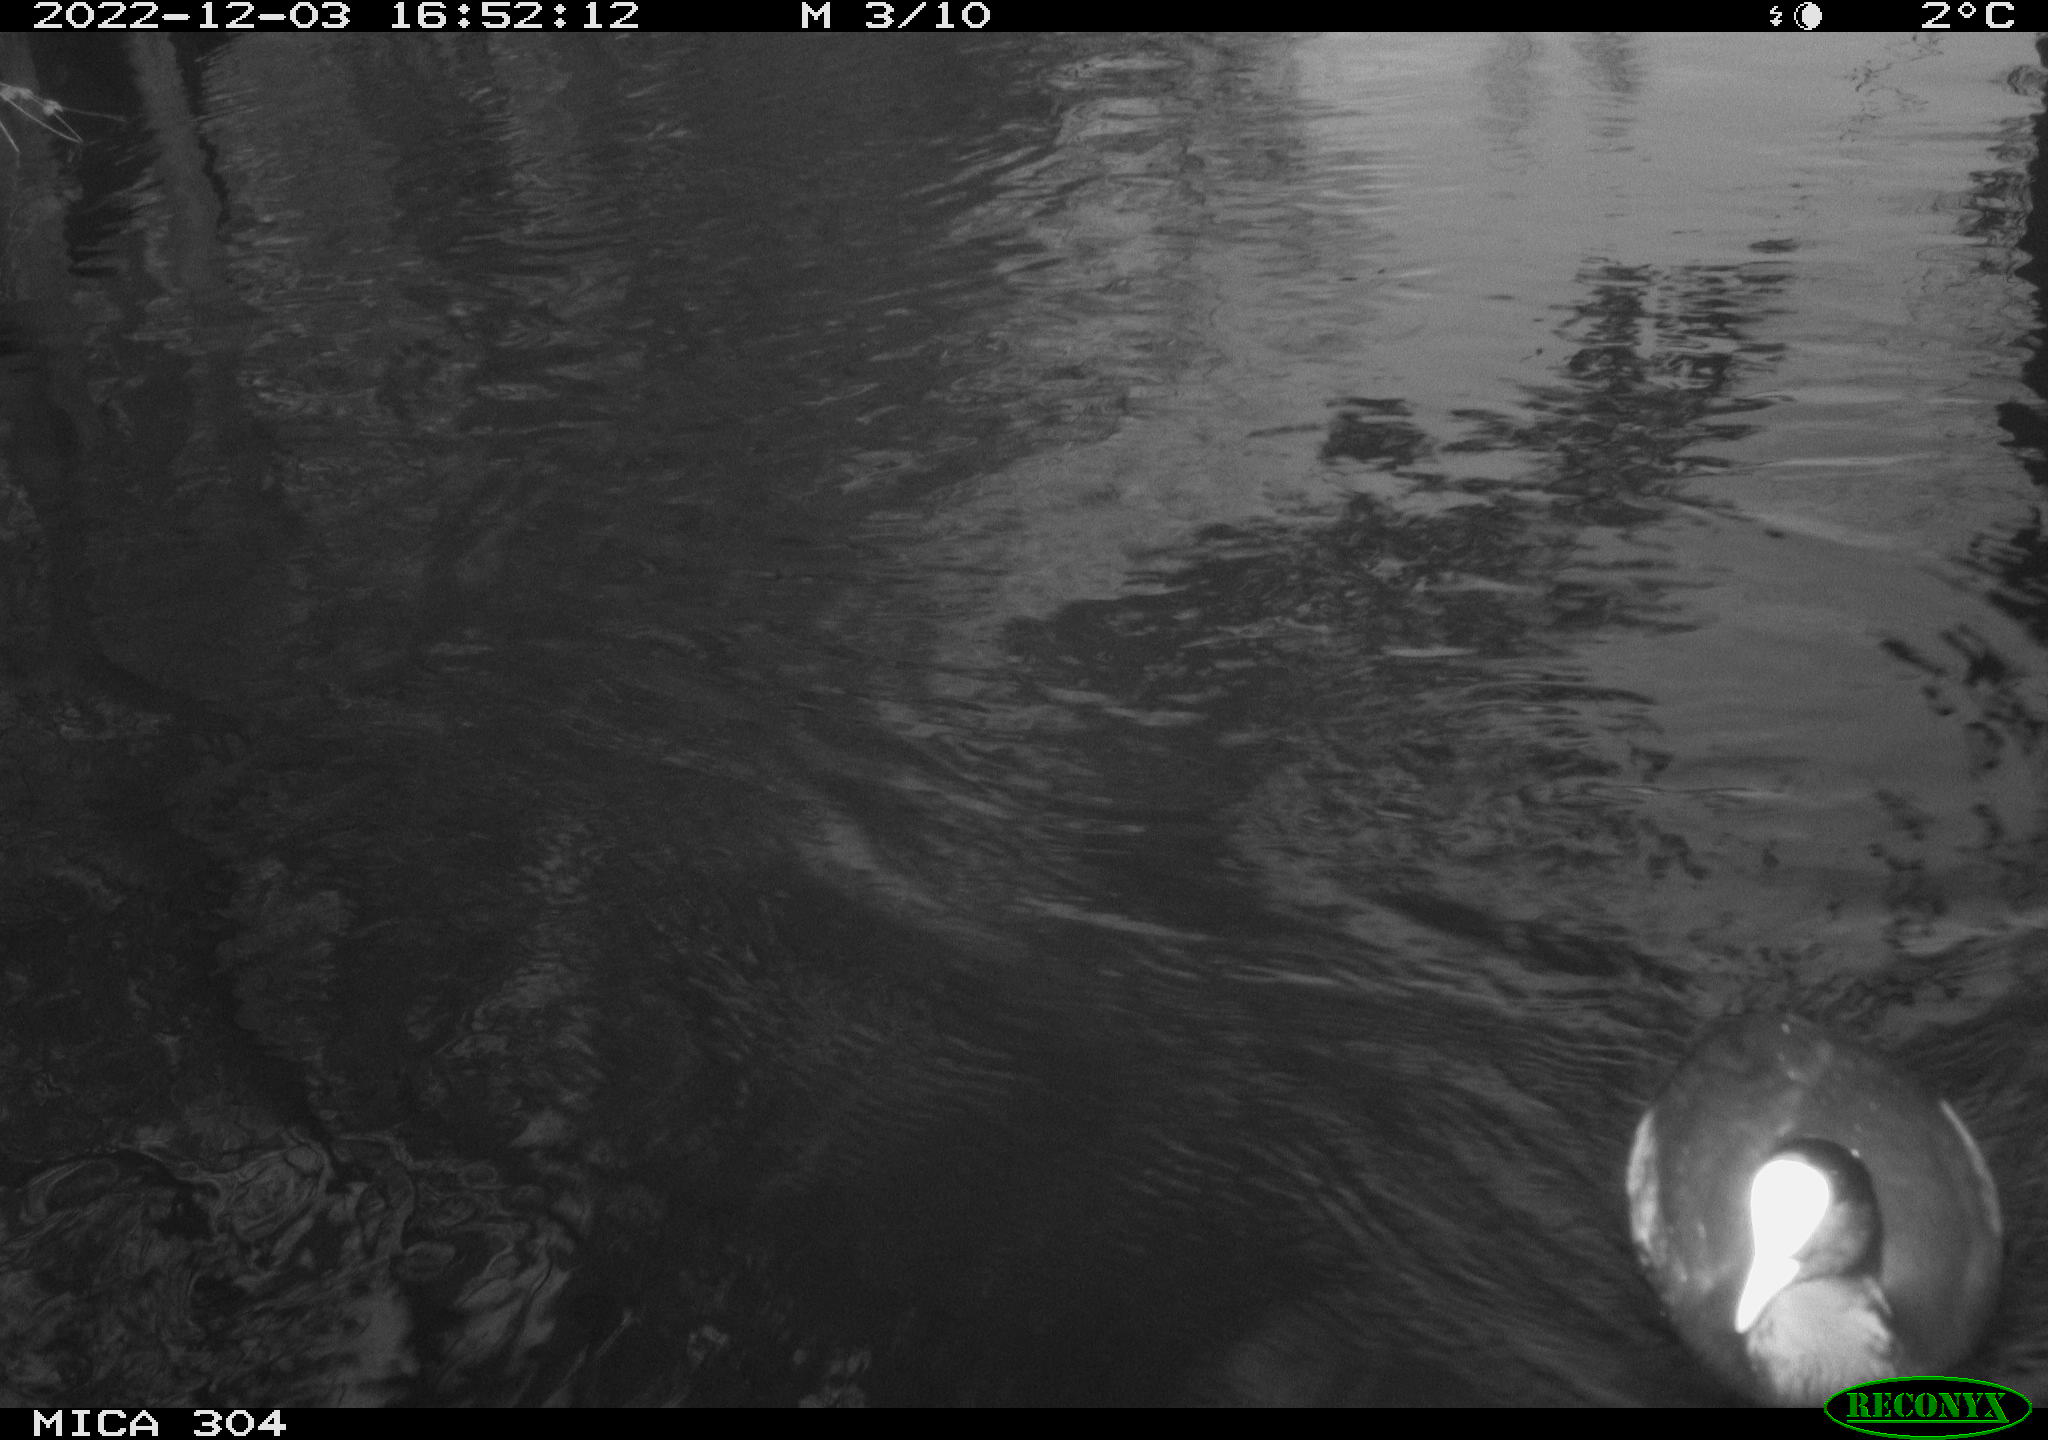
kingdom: Animalia
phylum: Chordata
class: Aves
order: Gruiformes
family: Rallidae
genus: Fulica
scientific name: Fulica atra
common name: Eurasian coot
